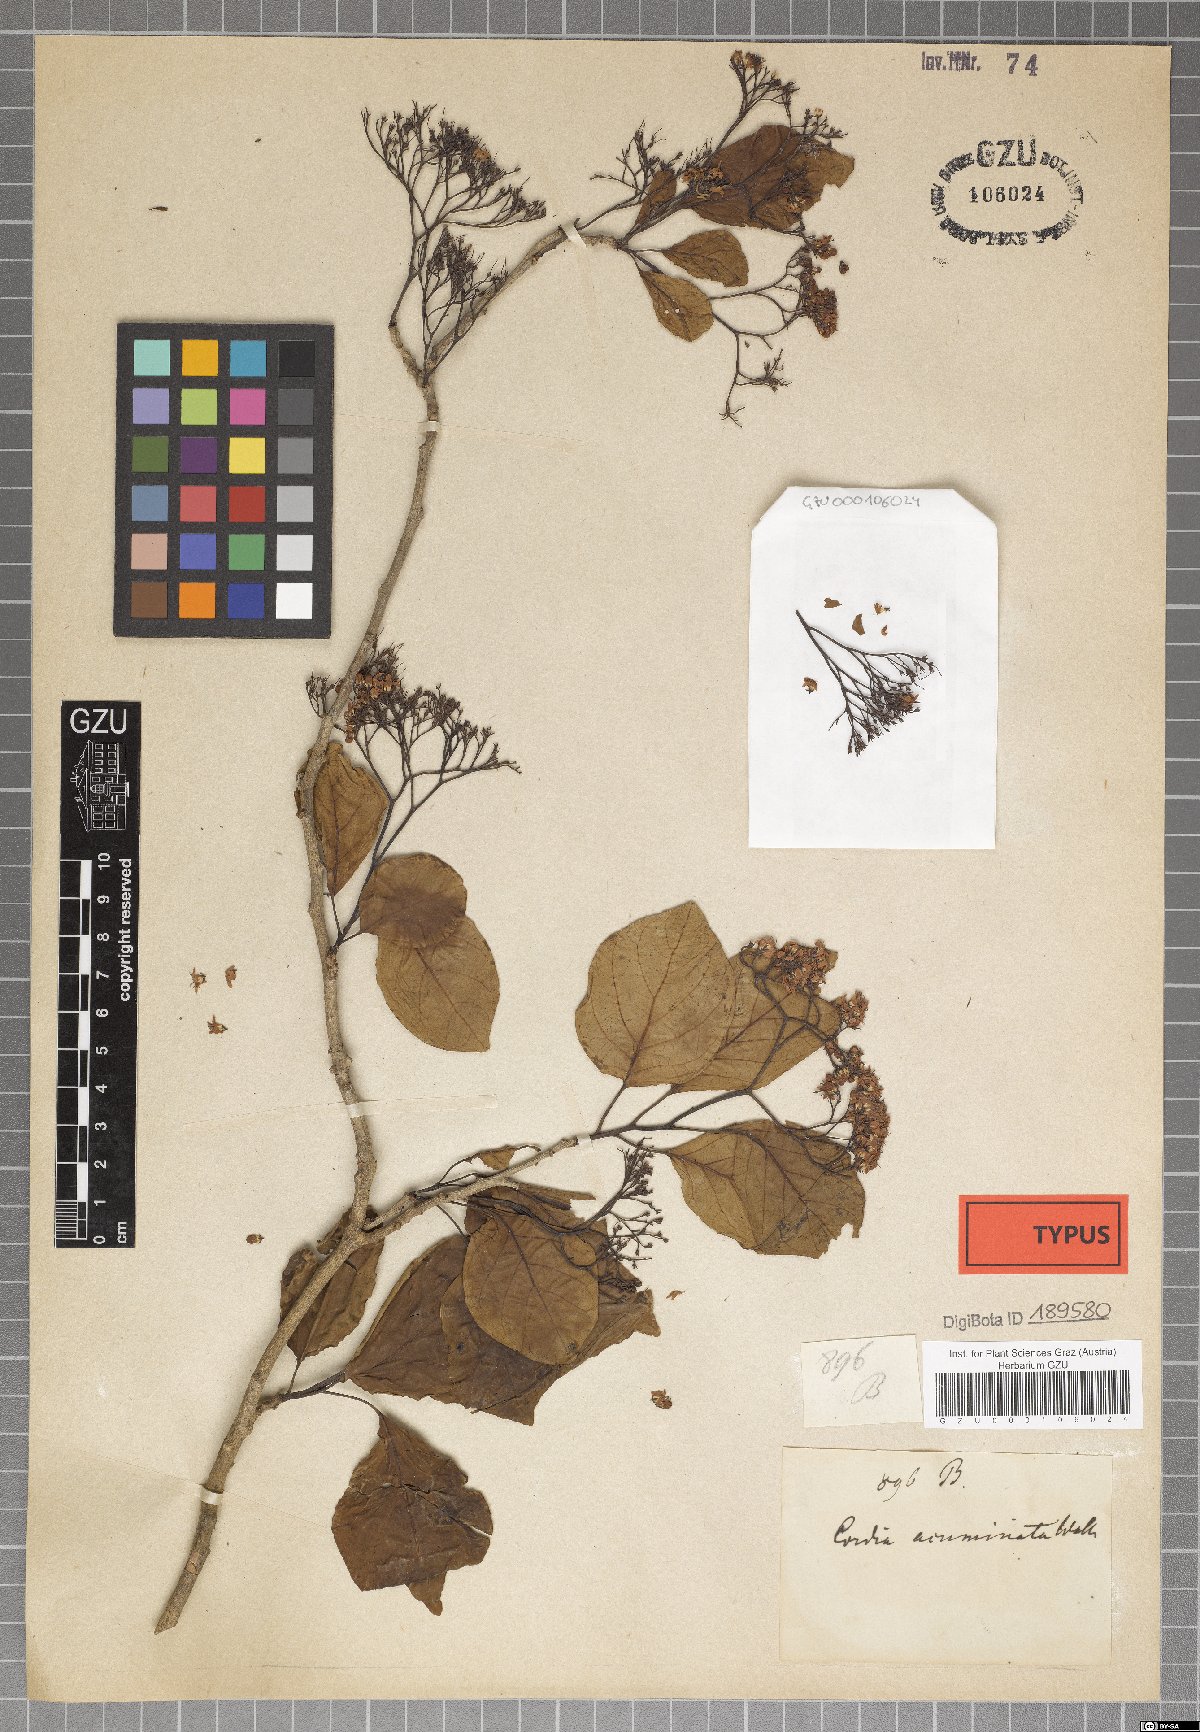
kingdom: Plantae
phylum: Tracheophyta
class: Magnoliopsida
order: Boraginales
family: Ehretiaceae
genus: Ehretia
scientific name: Ehretia wallichiana
